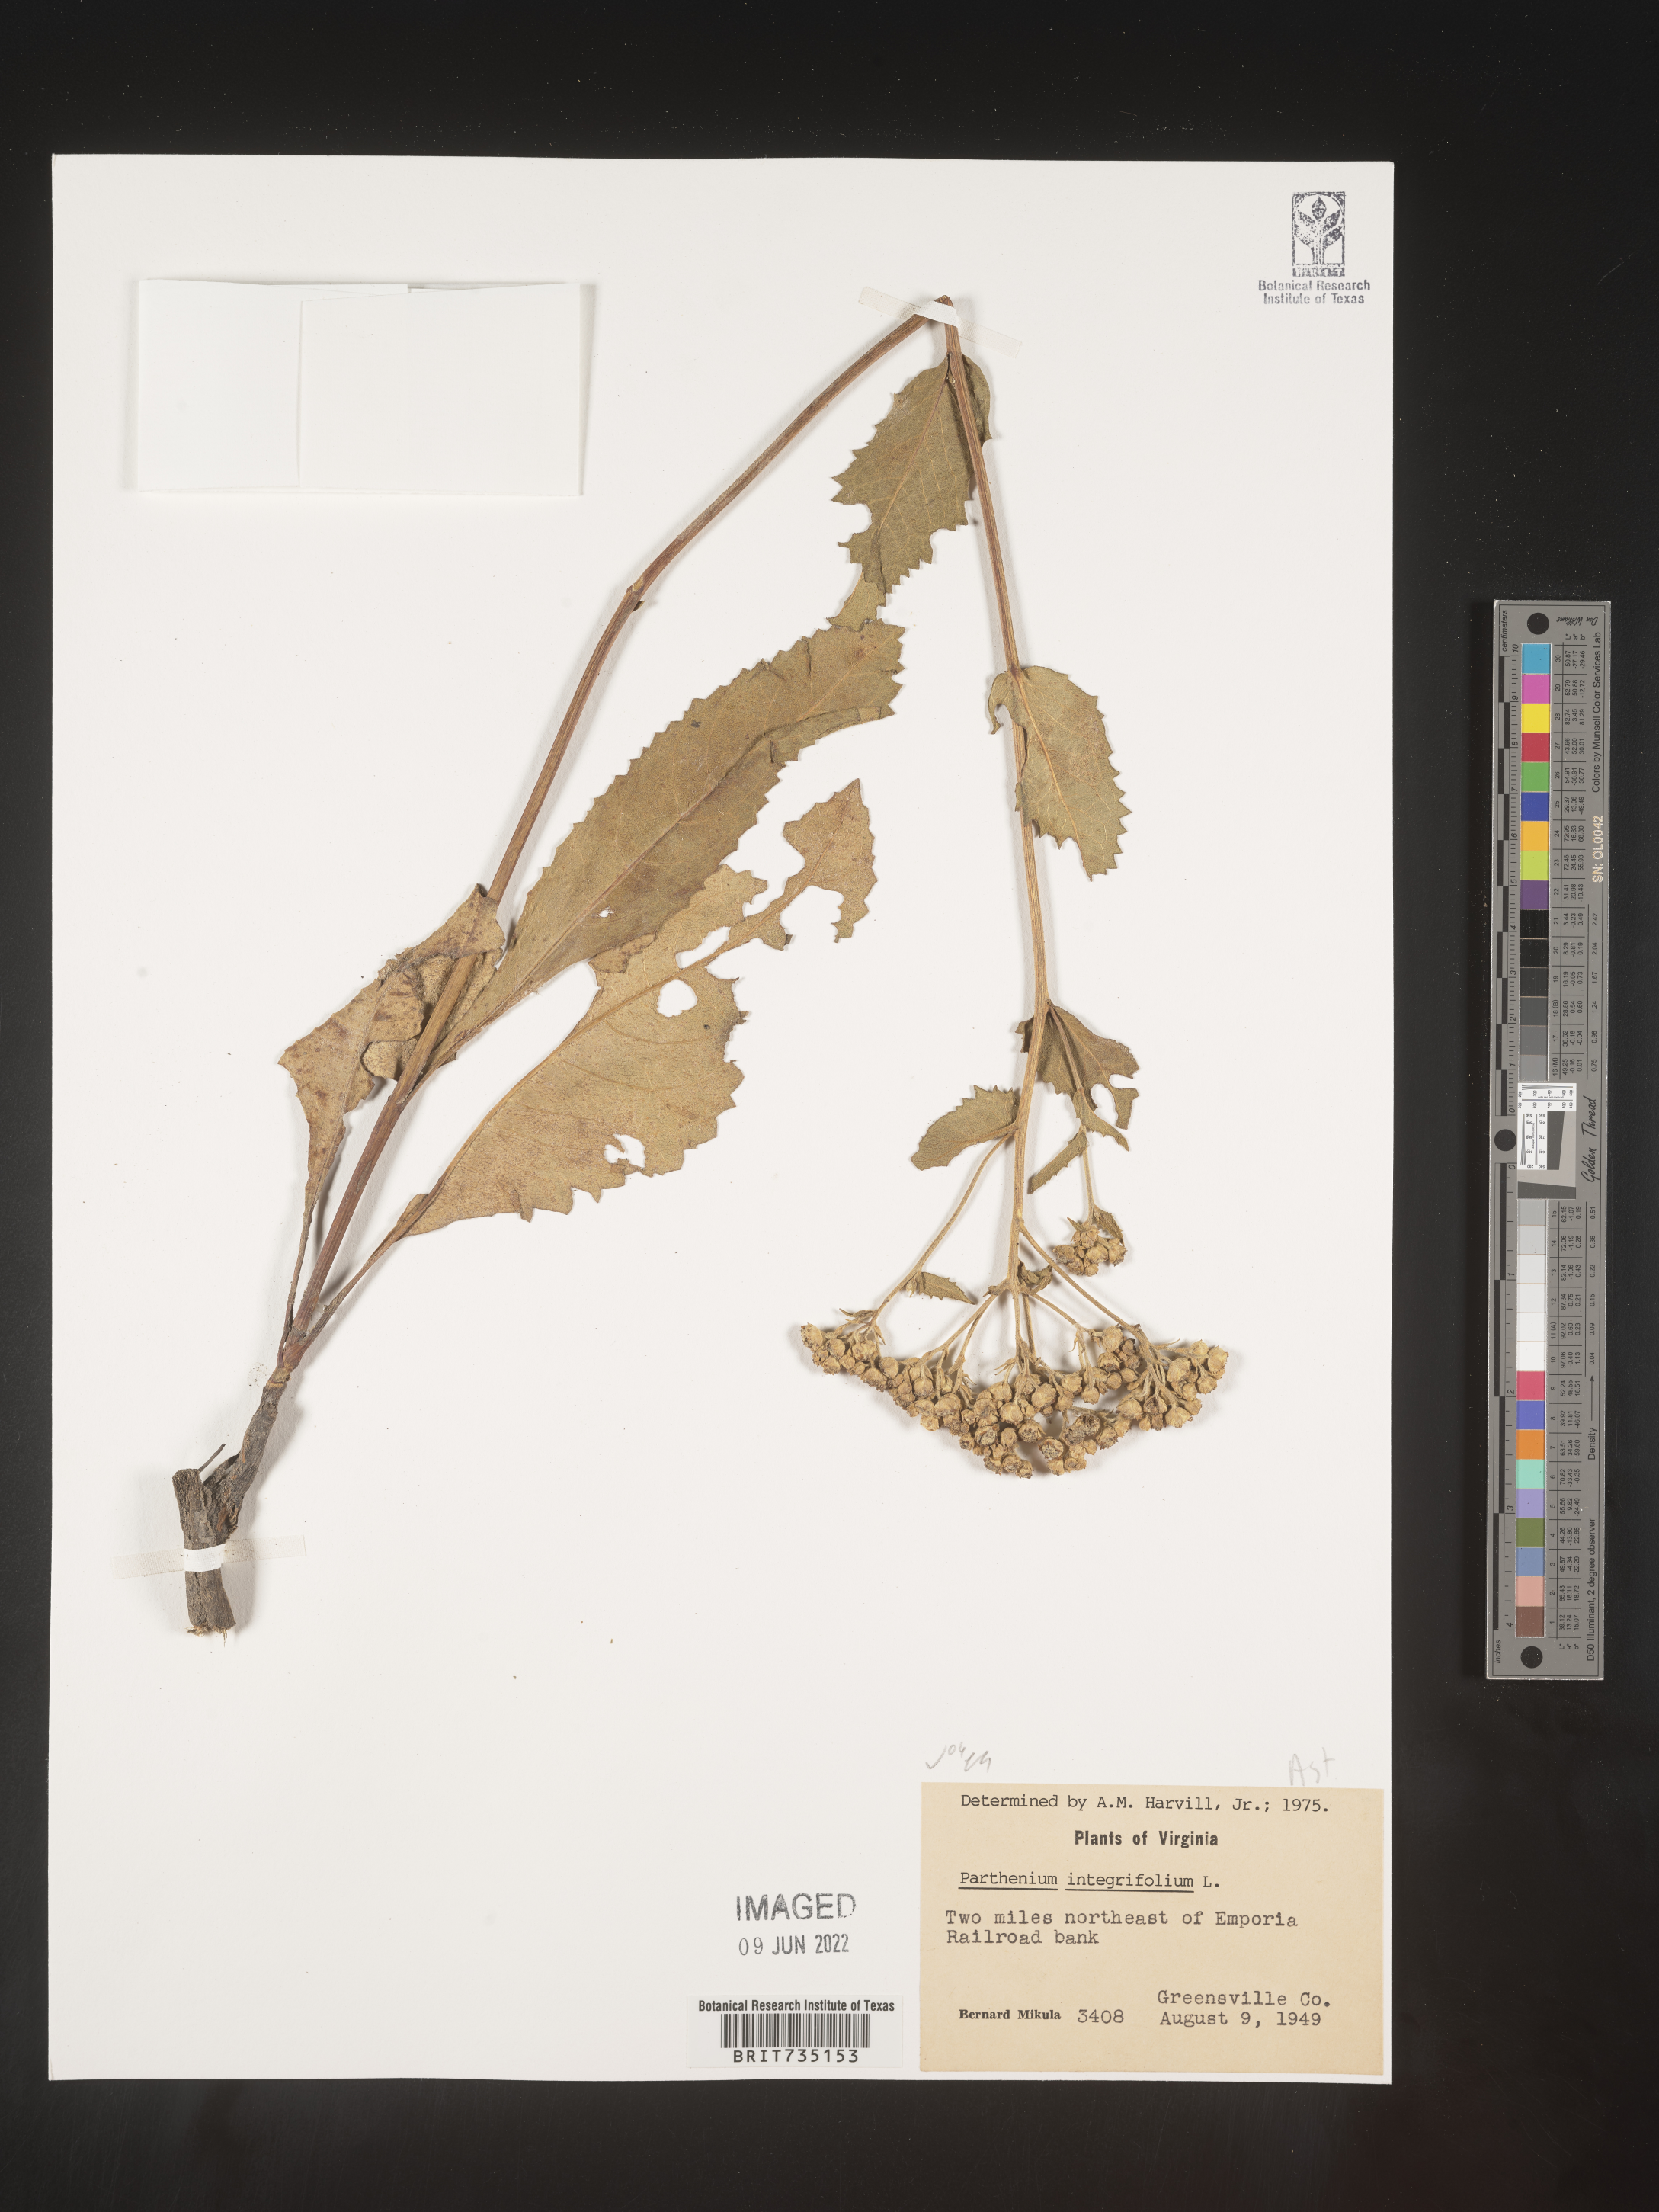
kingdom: Plantae
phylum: Tracheophyta
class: Magnoliopsida
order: Asterales
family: Asteraceae
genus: Parthenium
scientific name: Parthenium integrifolium
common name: American feverfew
